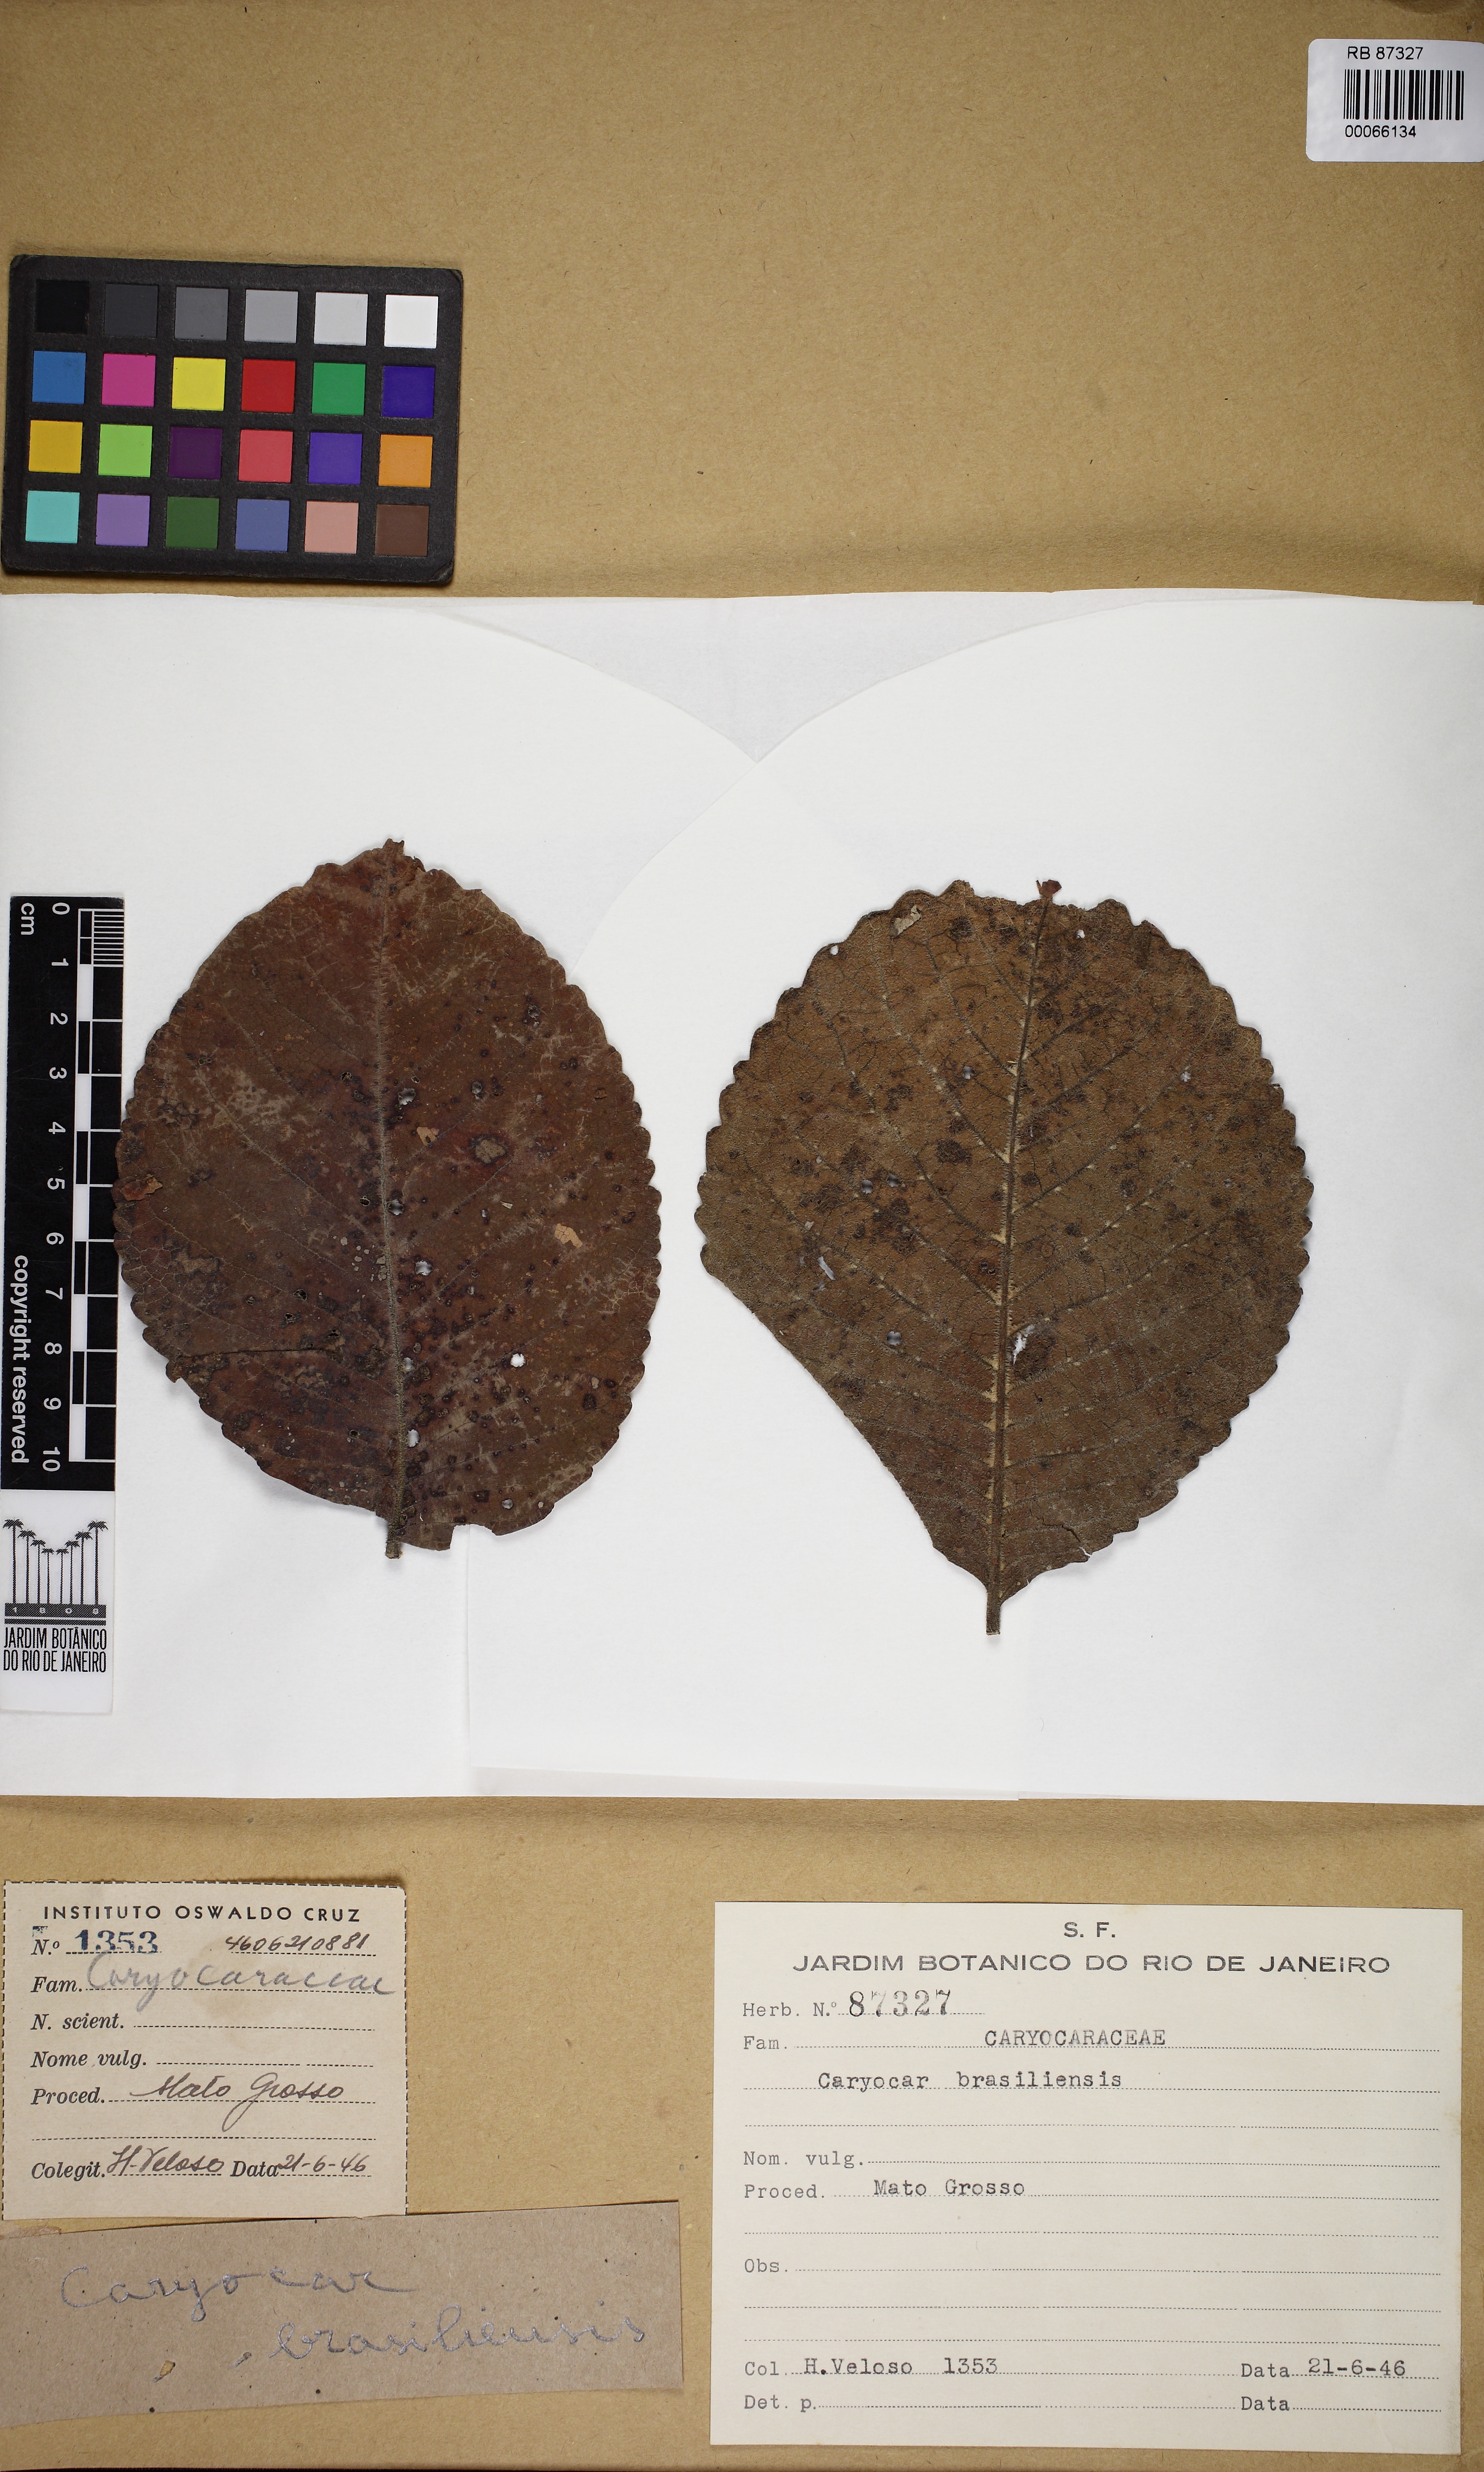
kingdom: Plantae
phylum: Tracheophyta
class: Magnoliopsida
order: Malpighiales
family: Caryocaraceae
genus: Caryocar
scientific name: Caryocar brasiliense
